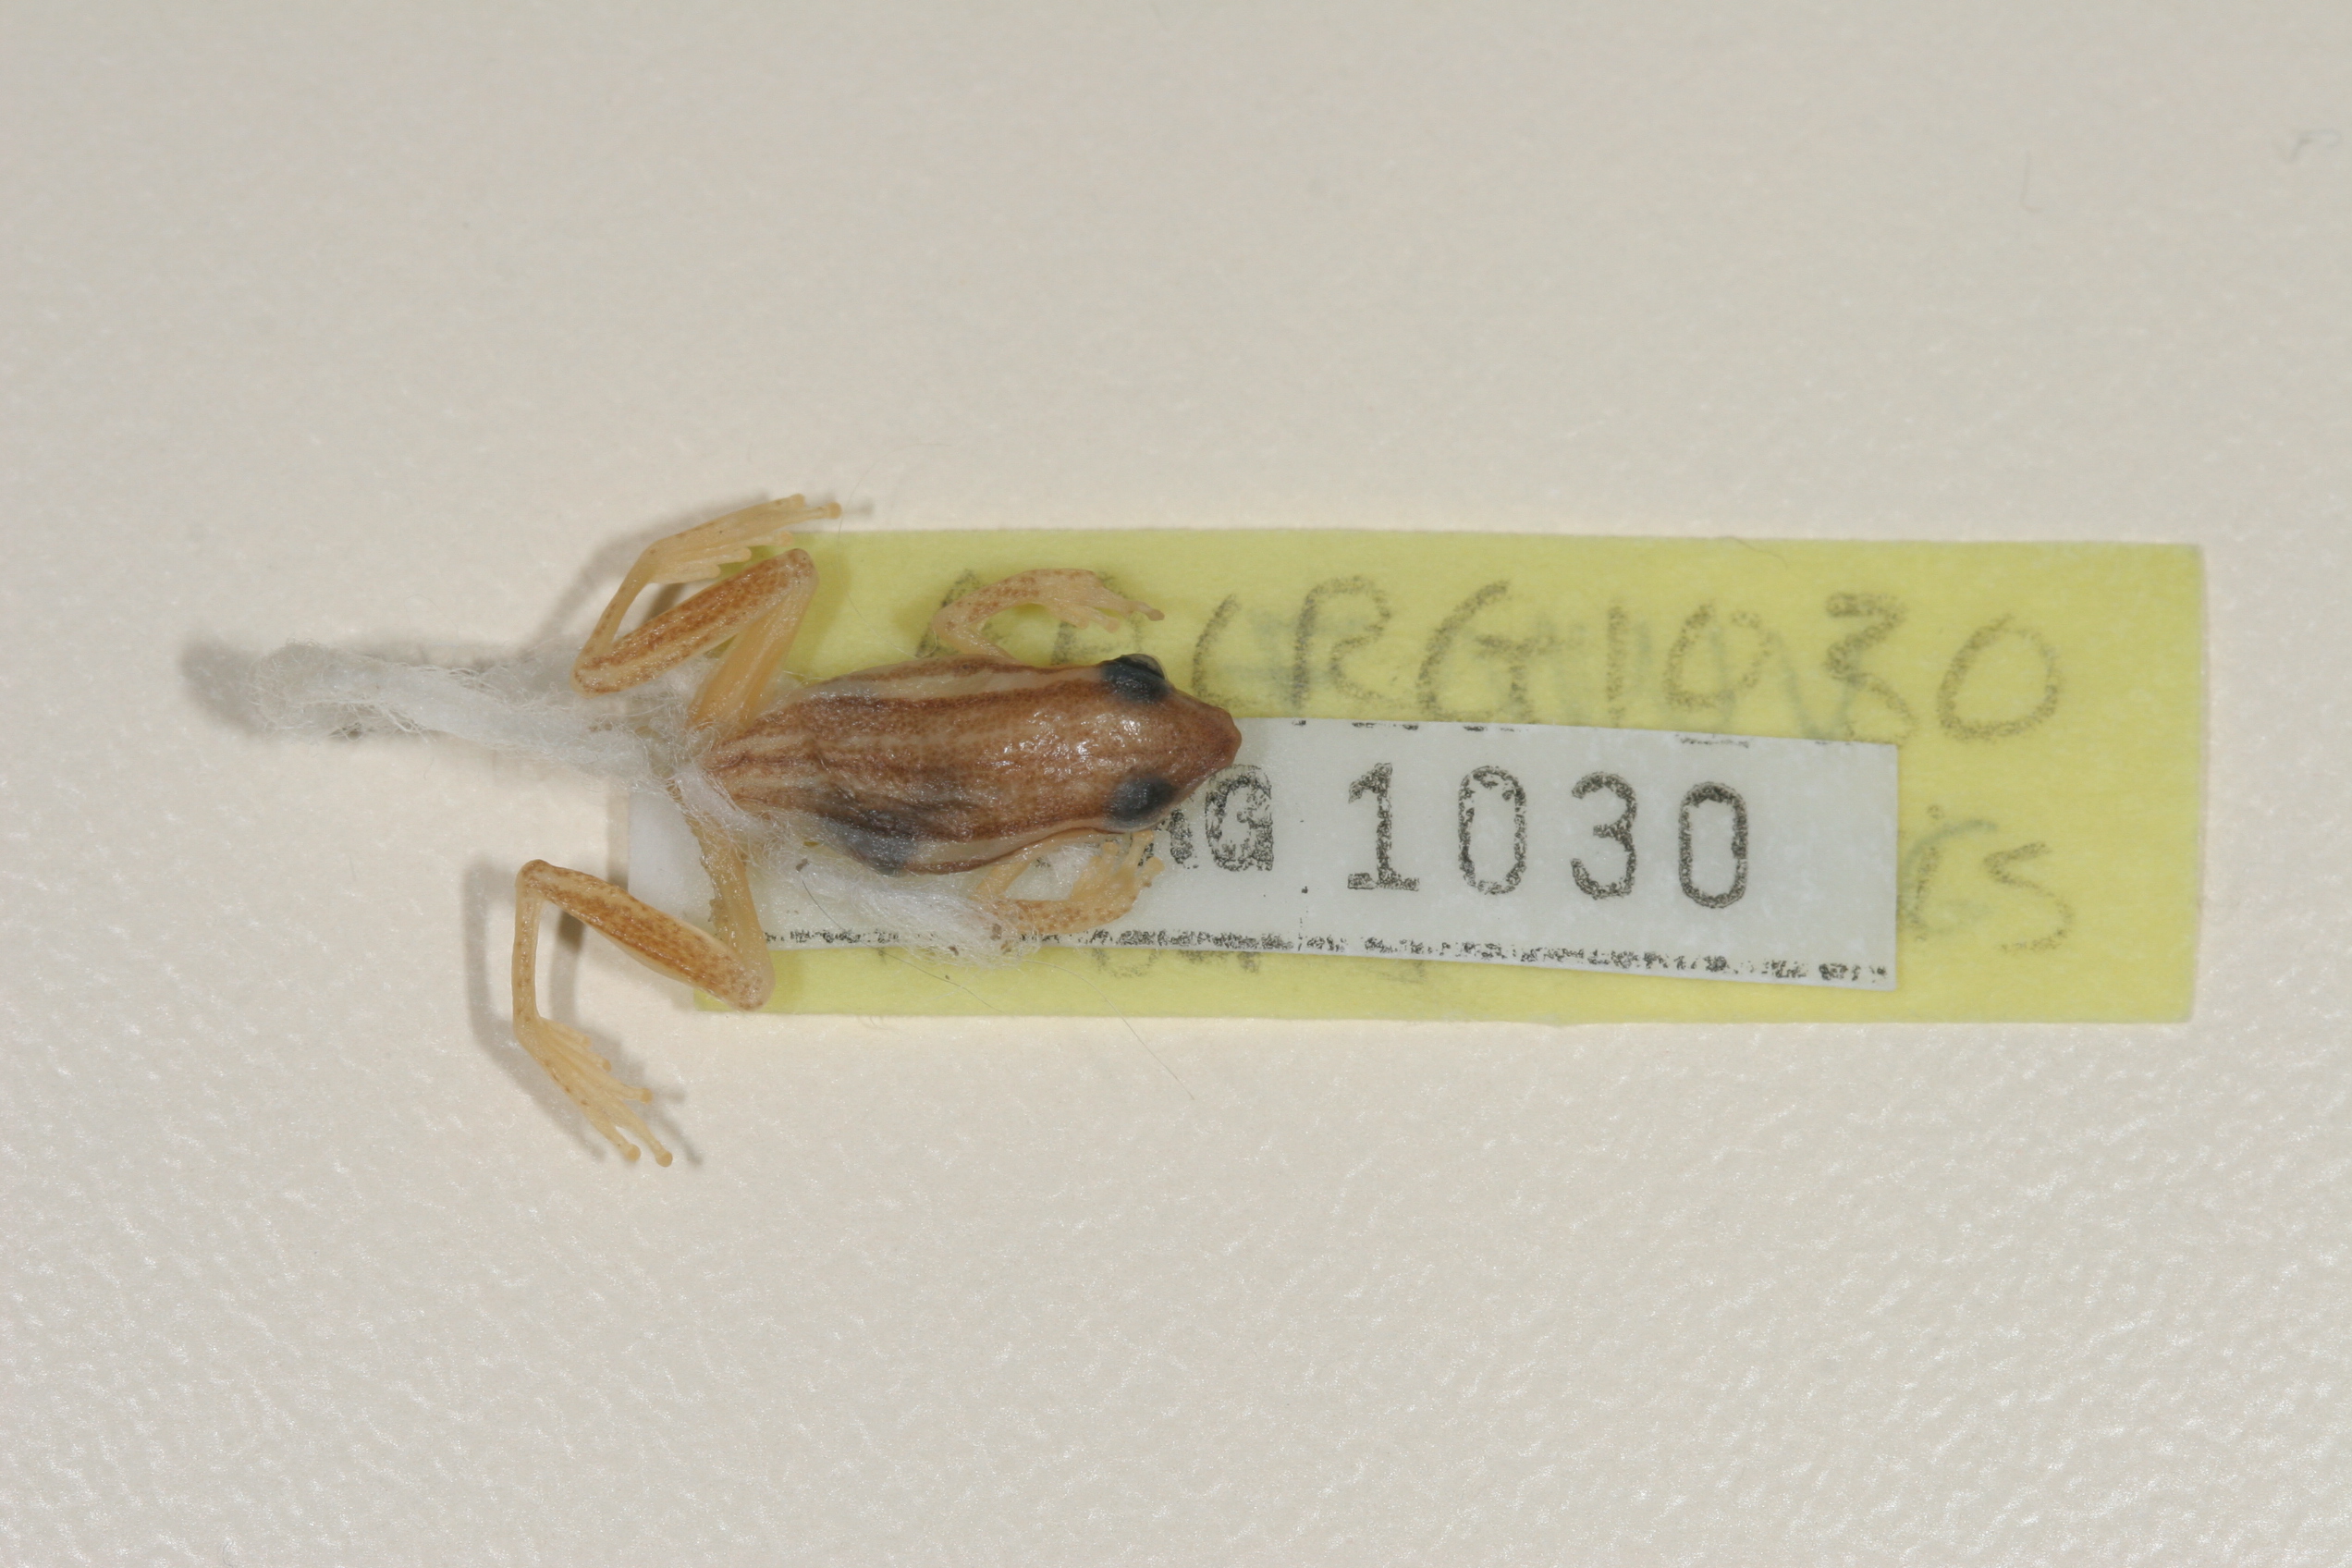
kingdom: Animalia
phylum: Chordata
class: Amphibia
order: Anura
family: Hyperoliidae
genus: Hyperolius
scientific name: Hyperolius benguellensis
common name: Benguella reed frog
